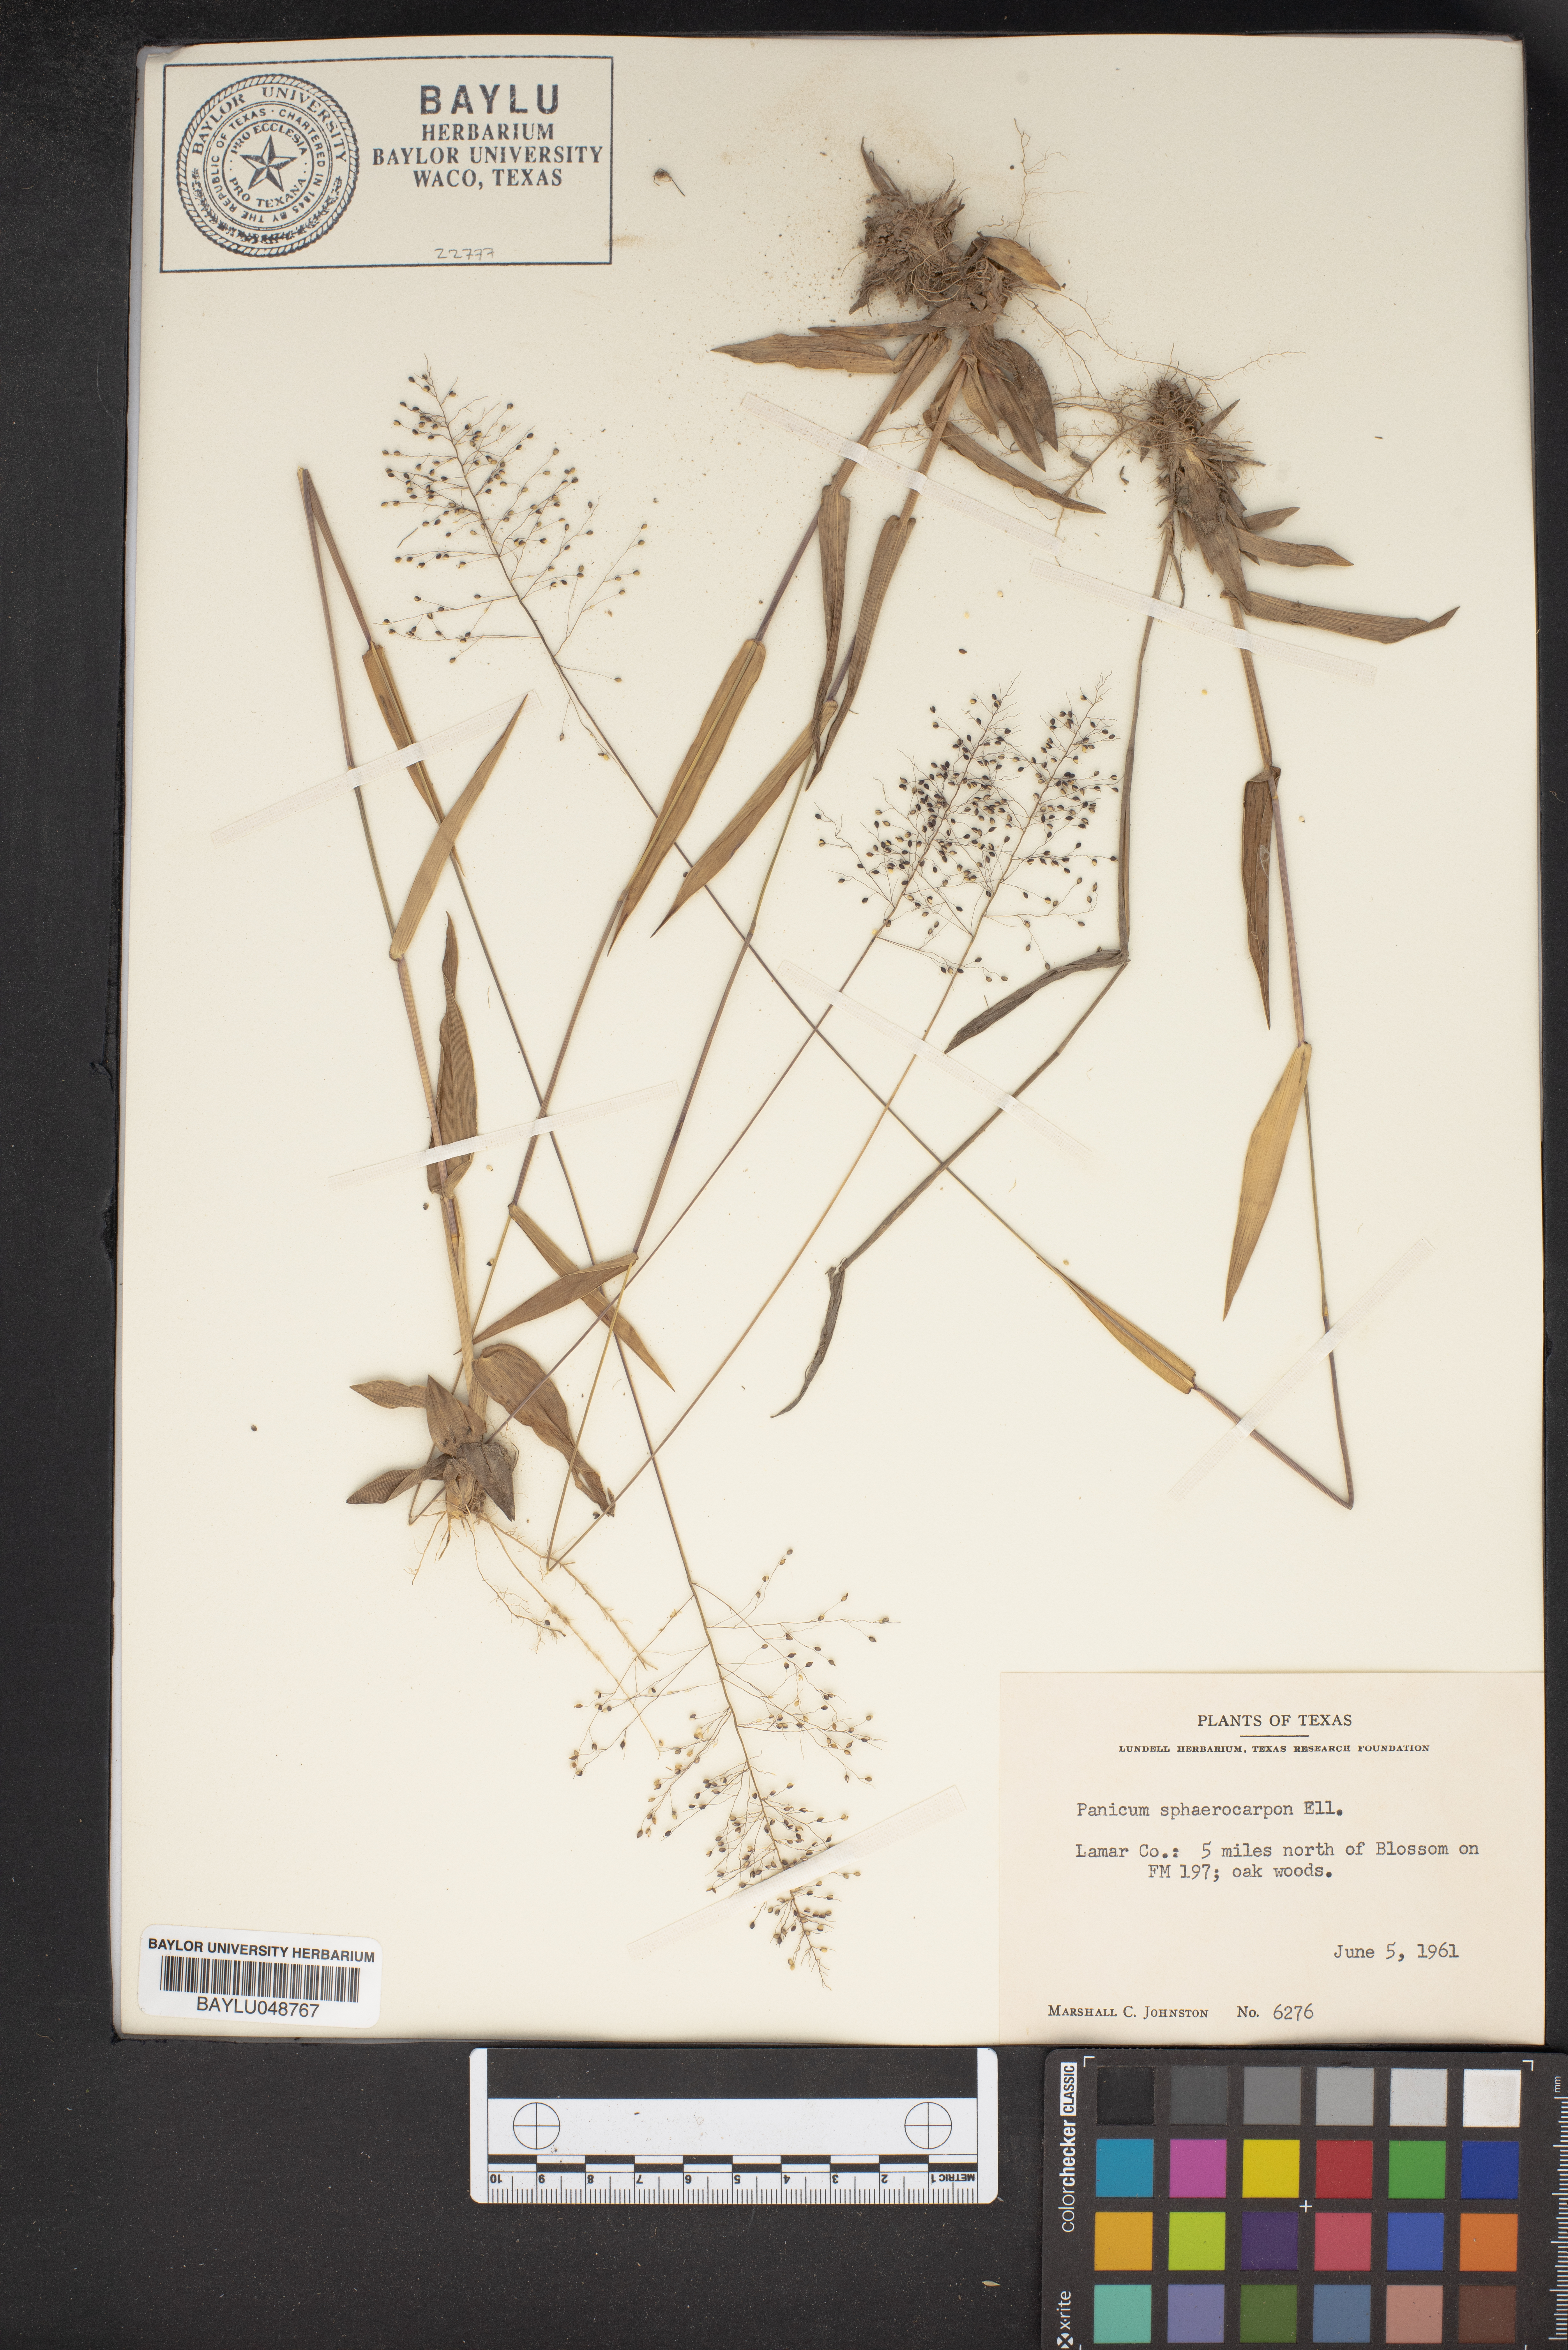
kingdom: Plantae
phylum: Tracheophyta
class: Liliopsida
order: Poales
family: Poaceae
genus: Dichanthelium
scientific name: Dichanthelium sphaerocarpon
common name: Round-fruited panicgrass
